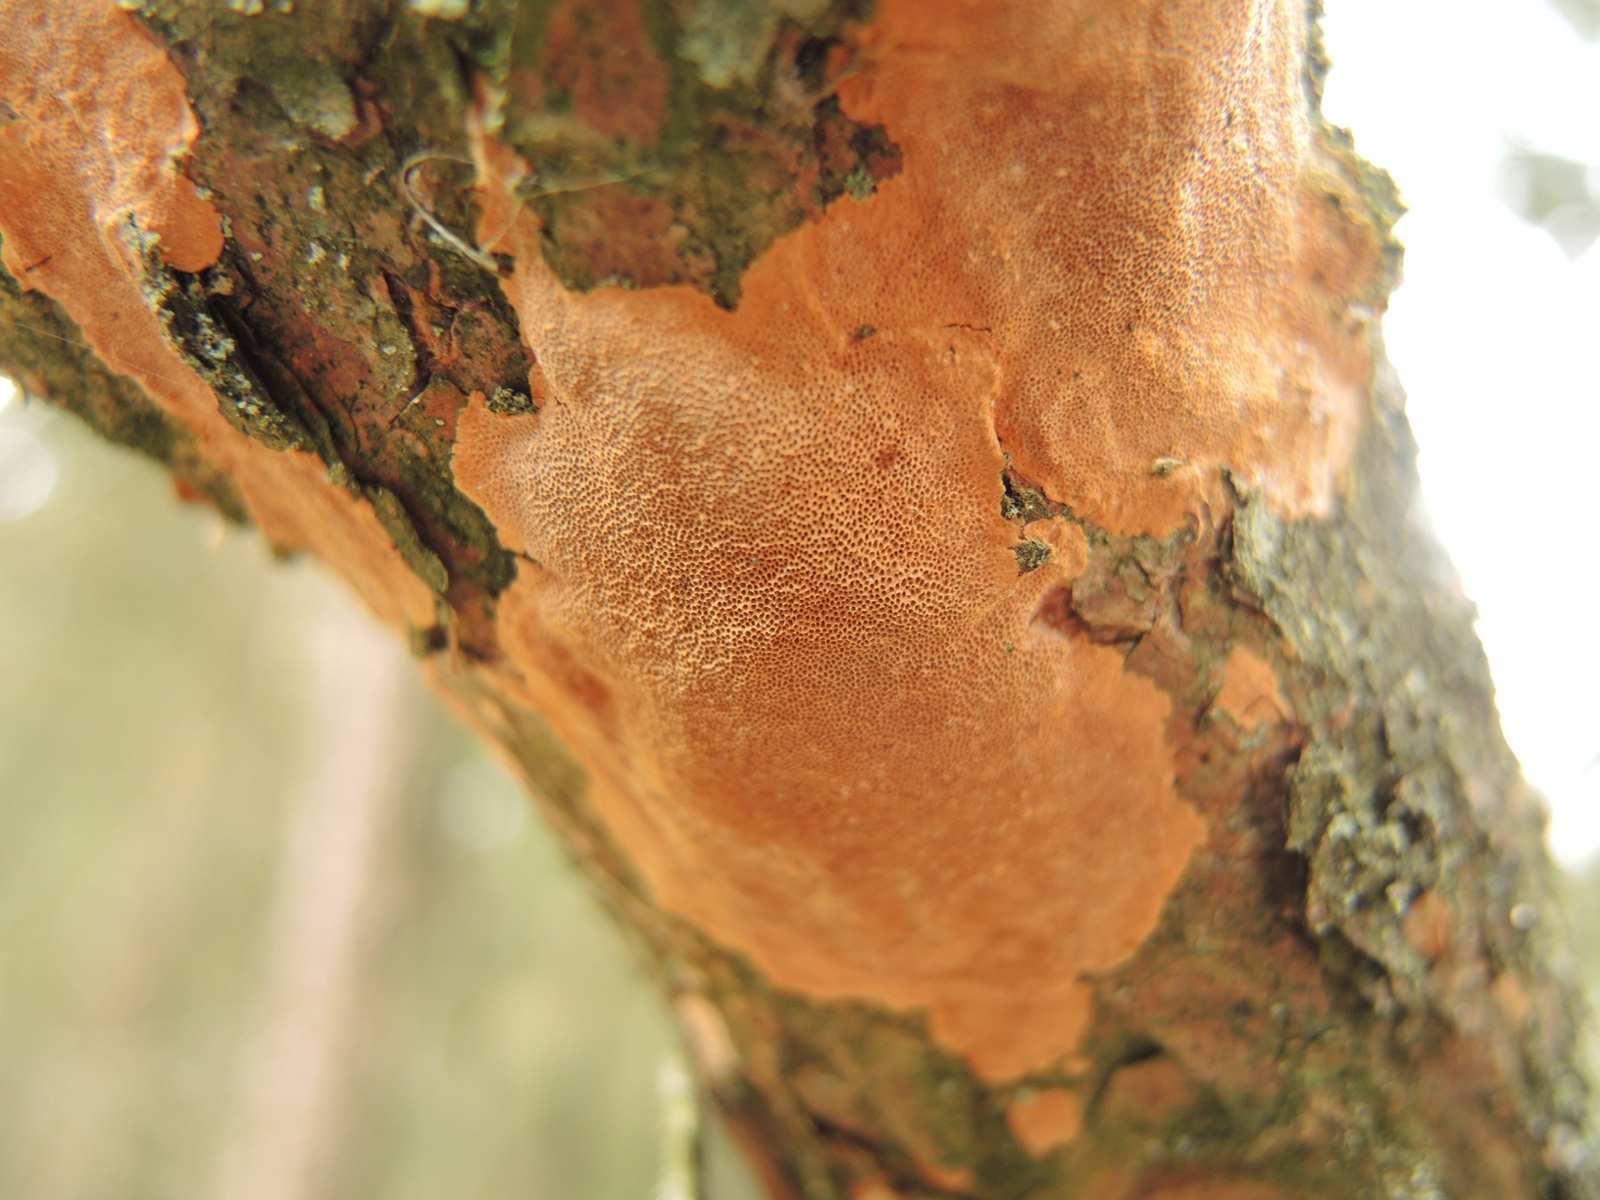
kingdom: Fungi
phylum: Basidiomycota
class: Agaricomycetes
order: Hymenochaetales
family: Hymenochaetaceae
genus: Fuscoporia
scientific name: Fuscoporia ferrea
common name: skorpe-ildporesvamp
